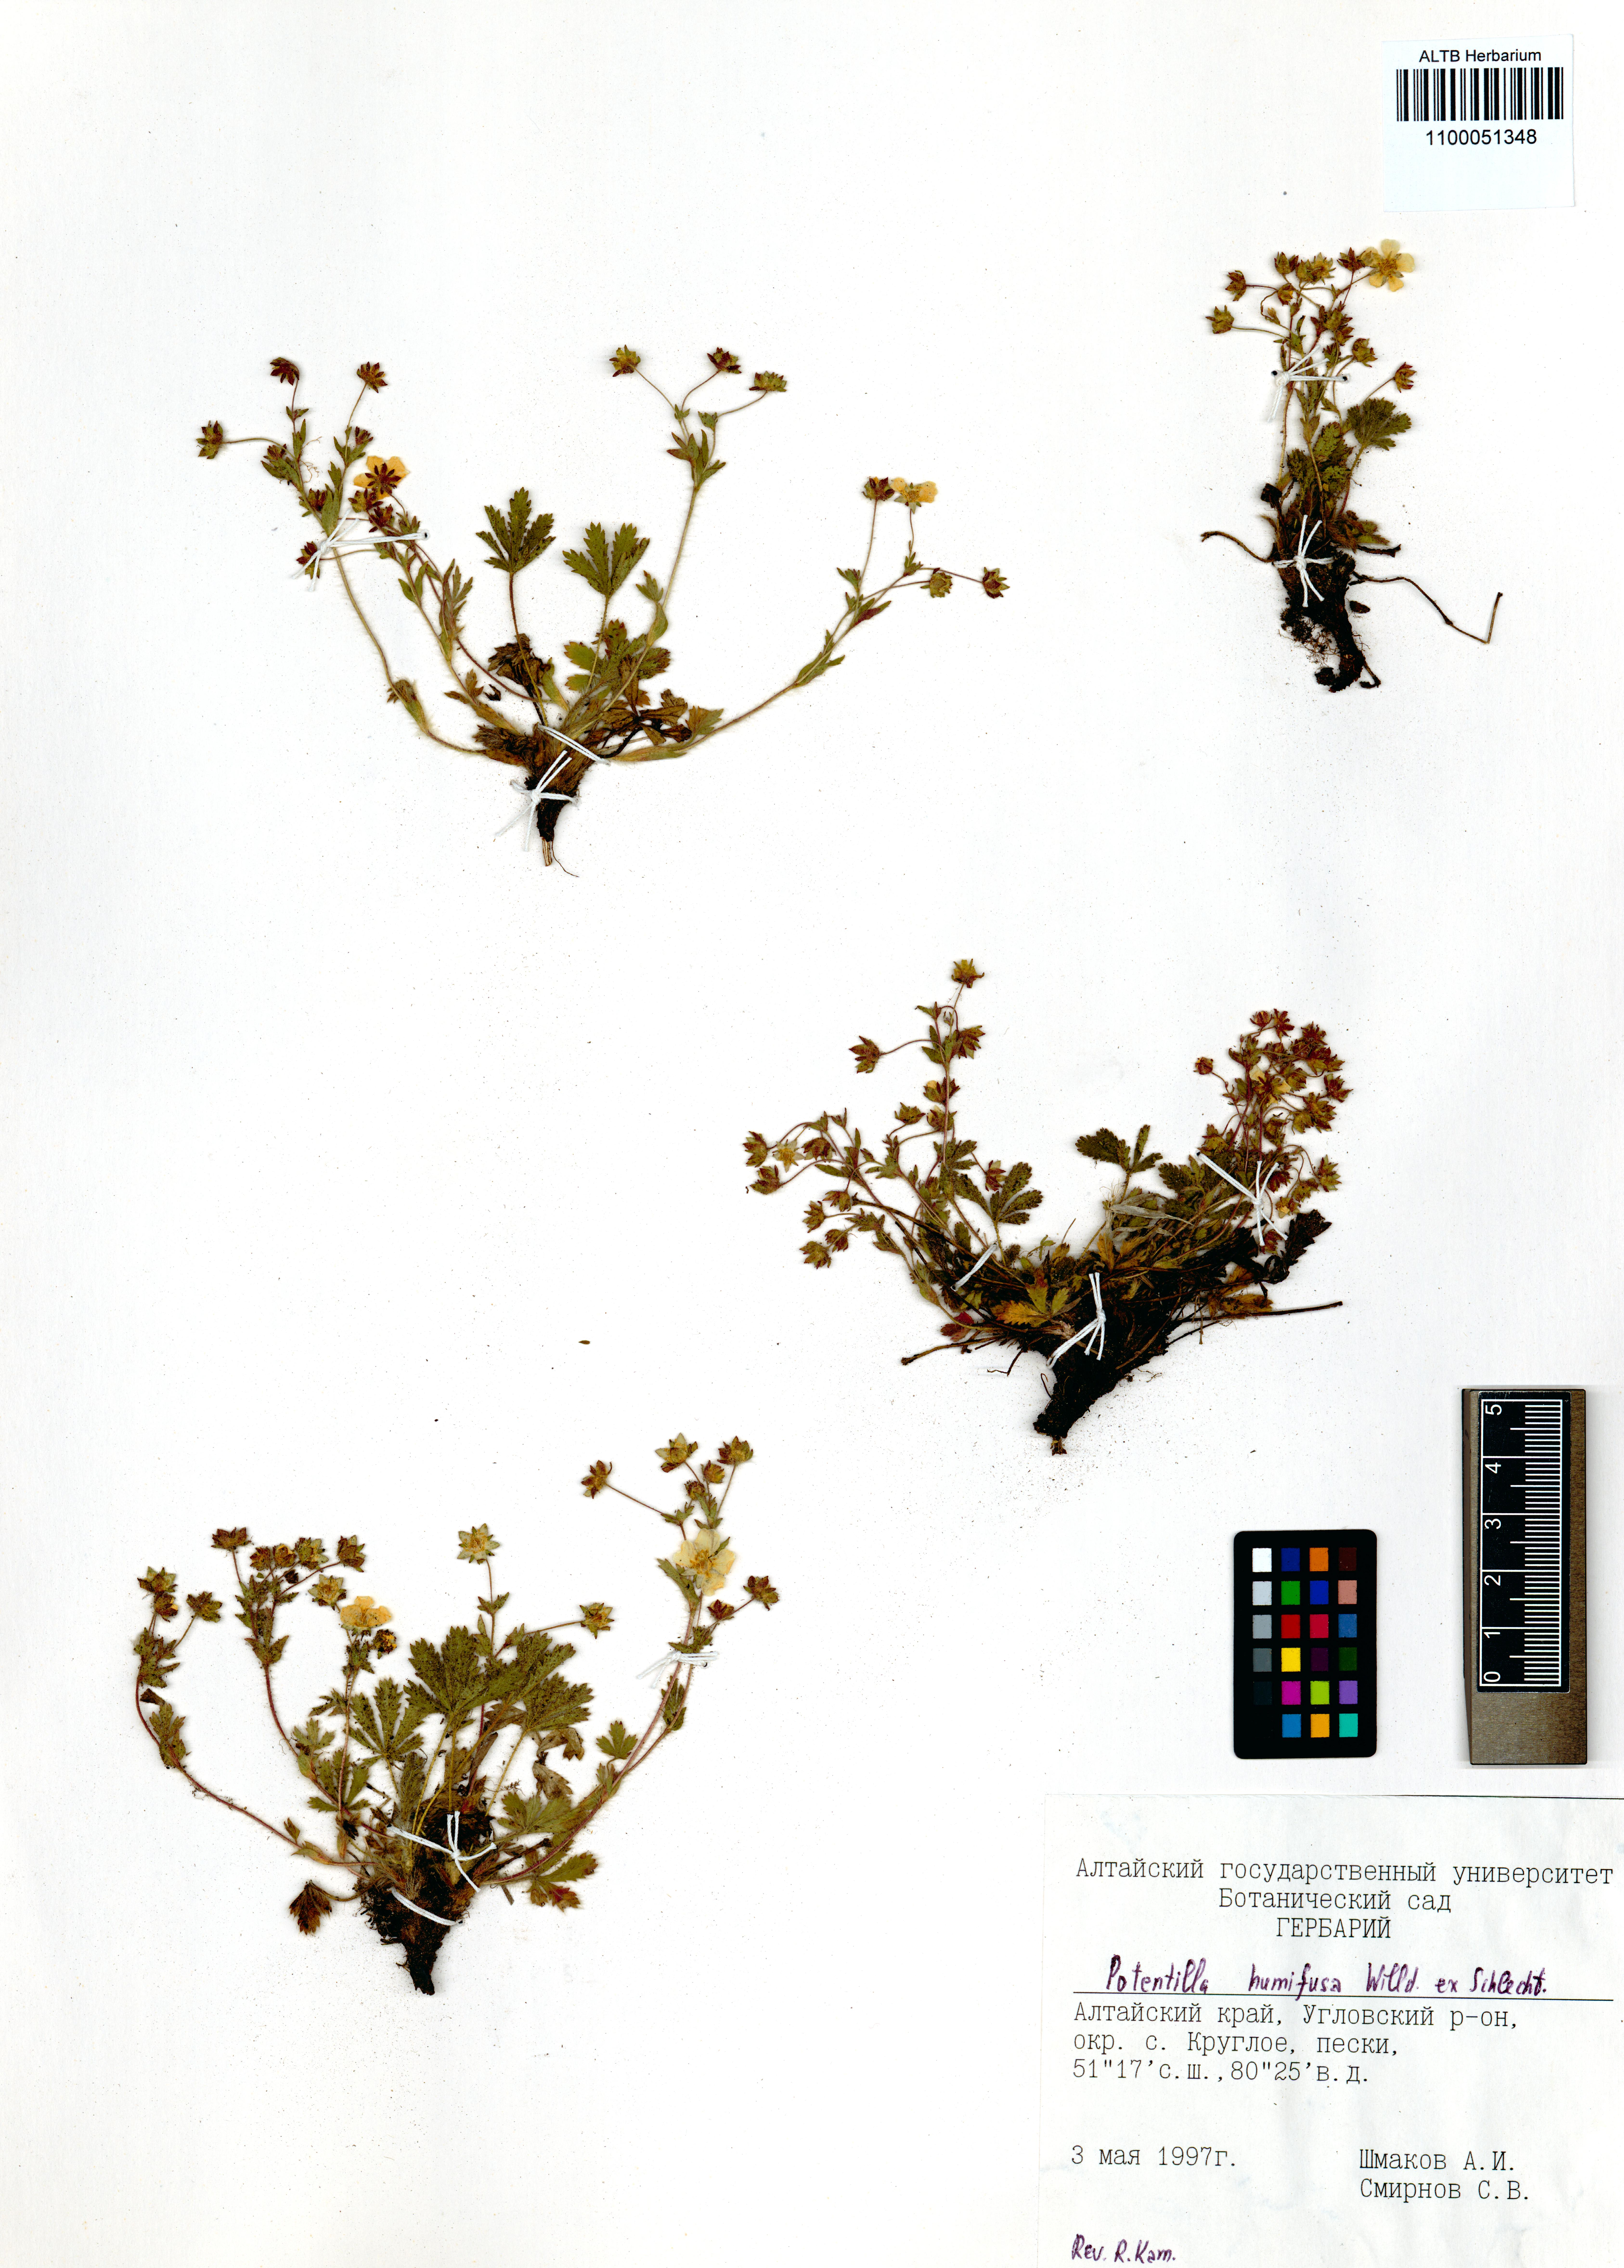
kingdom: Plantae
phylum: Tracheophyta
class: Magnoliopsida
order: Rosales
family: Rosaceae
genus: Potentilla
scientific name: Potentilla humifusa
